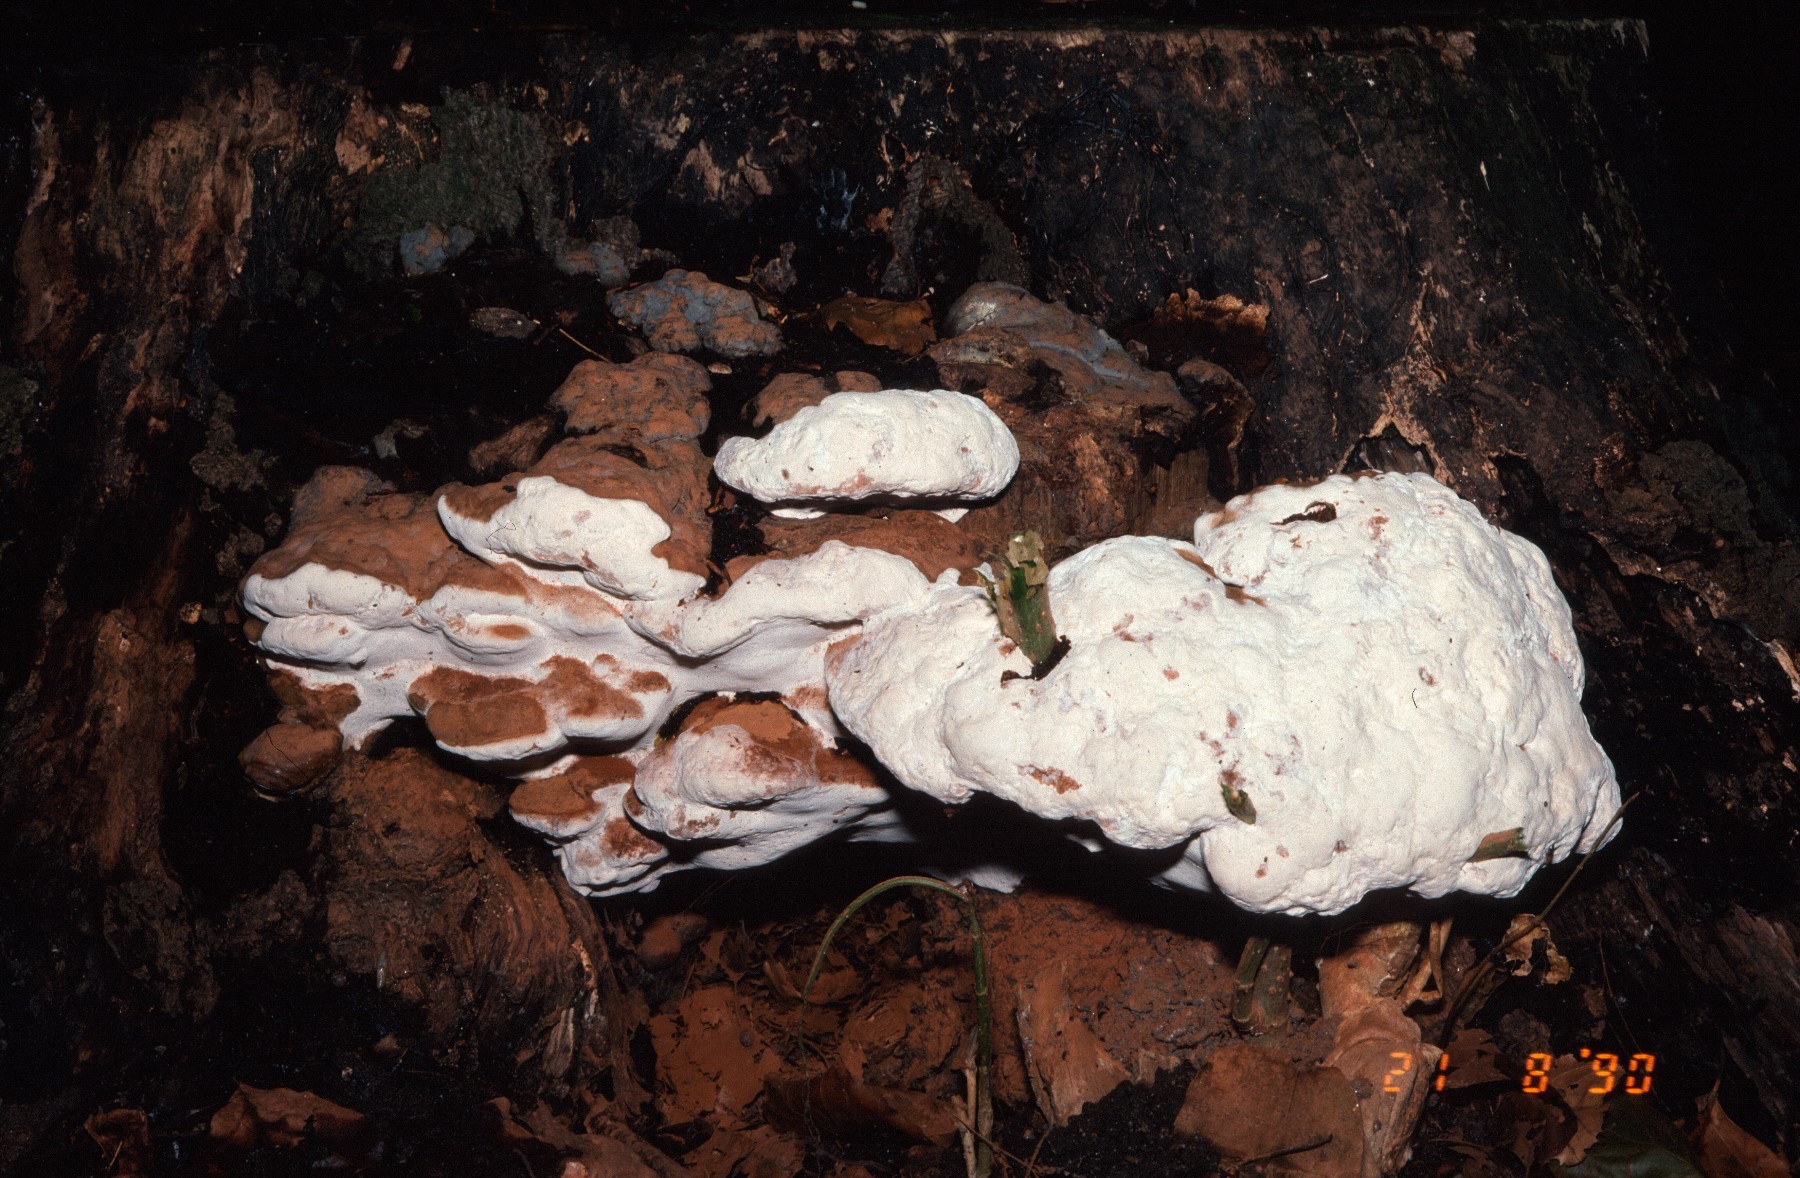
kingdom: Fungi
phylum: Basidiomycota
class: Agaricomycetes
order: Polyporales
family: Polyporaceae
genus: Ganoderma
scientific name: Ganoderma applanatum
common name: flad lakporesvamp
